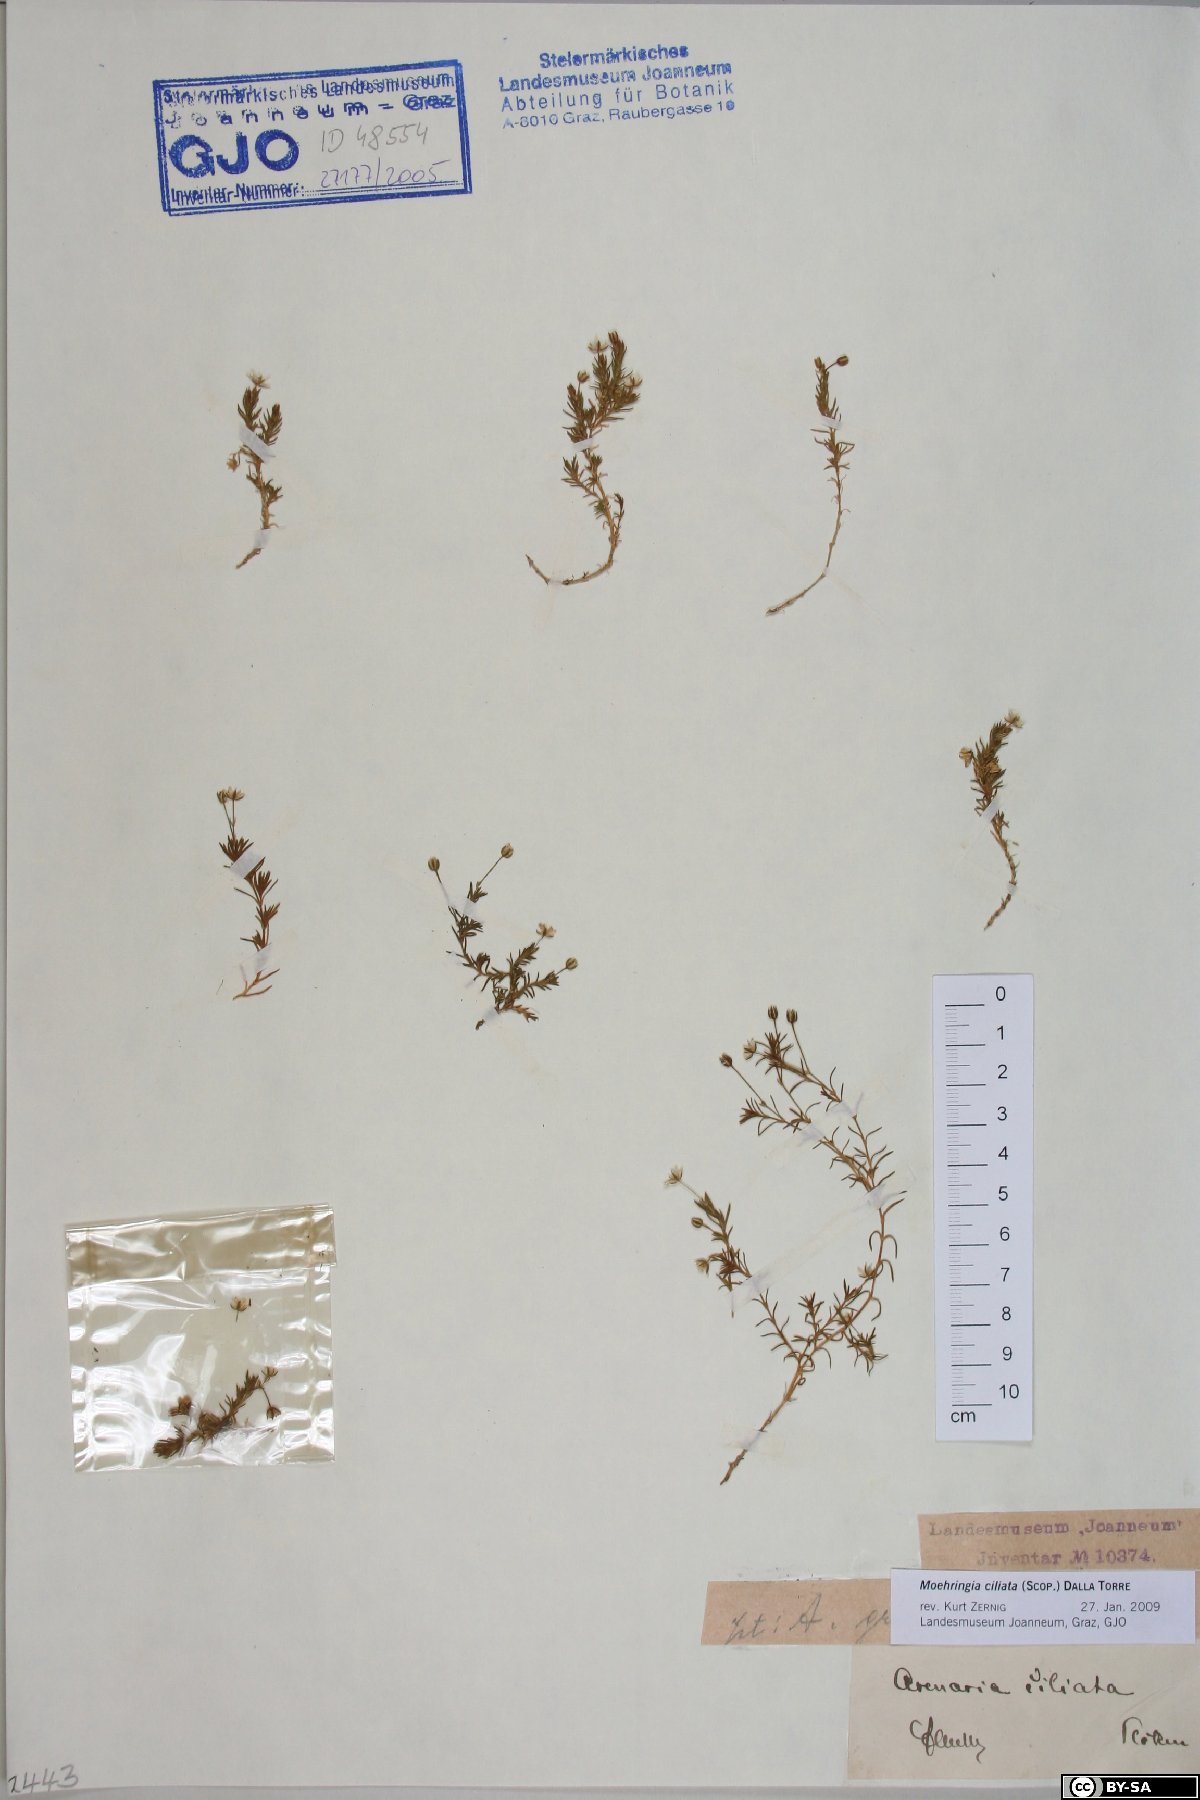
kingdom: Plantae
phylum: Tracheophyta
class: Magnoliopsida
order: Caryophyllales
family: Caryophyllaceae
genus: Moehringia
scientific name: Moehringia ciliata
